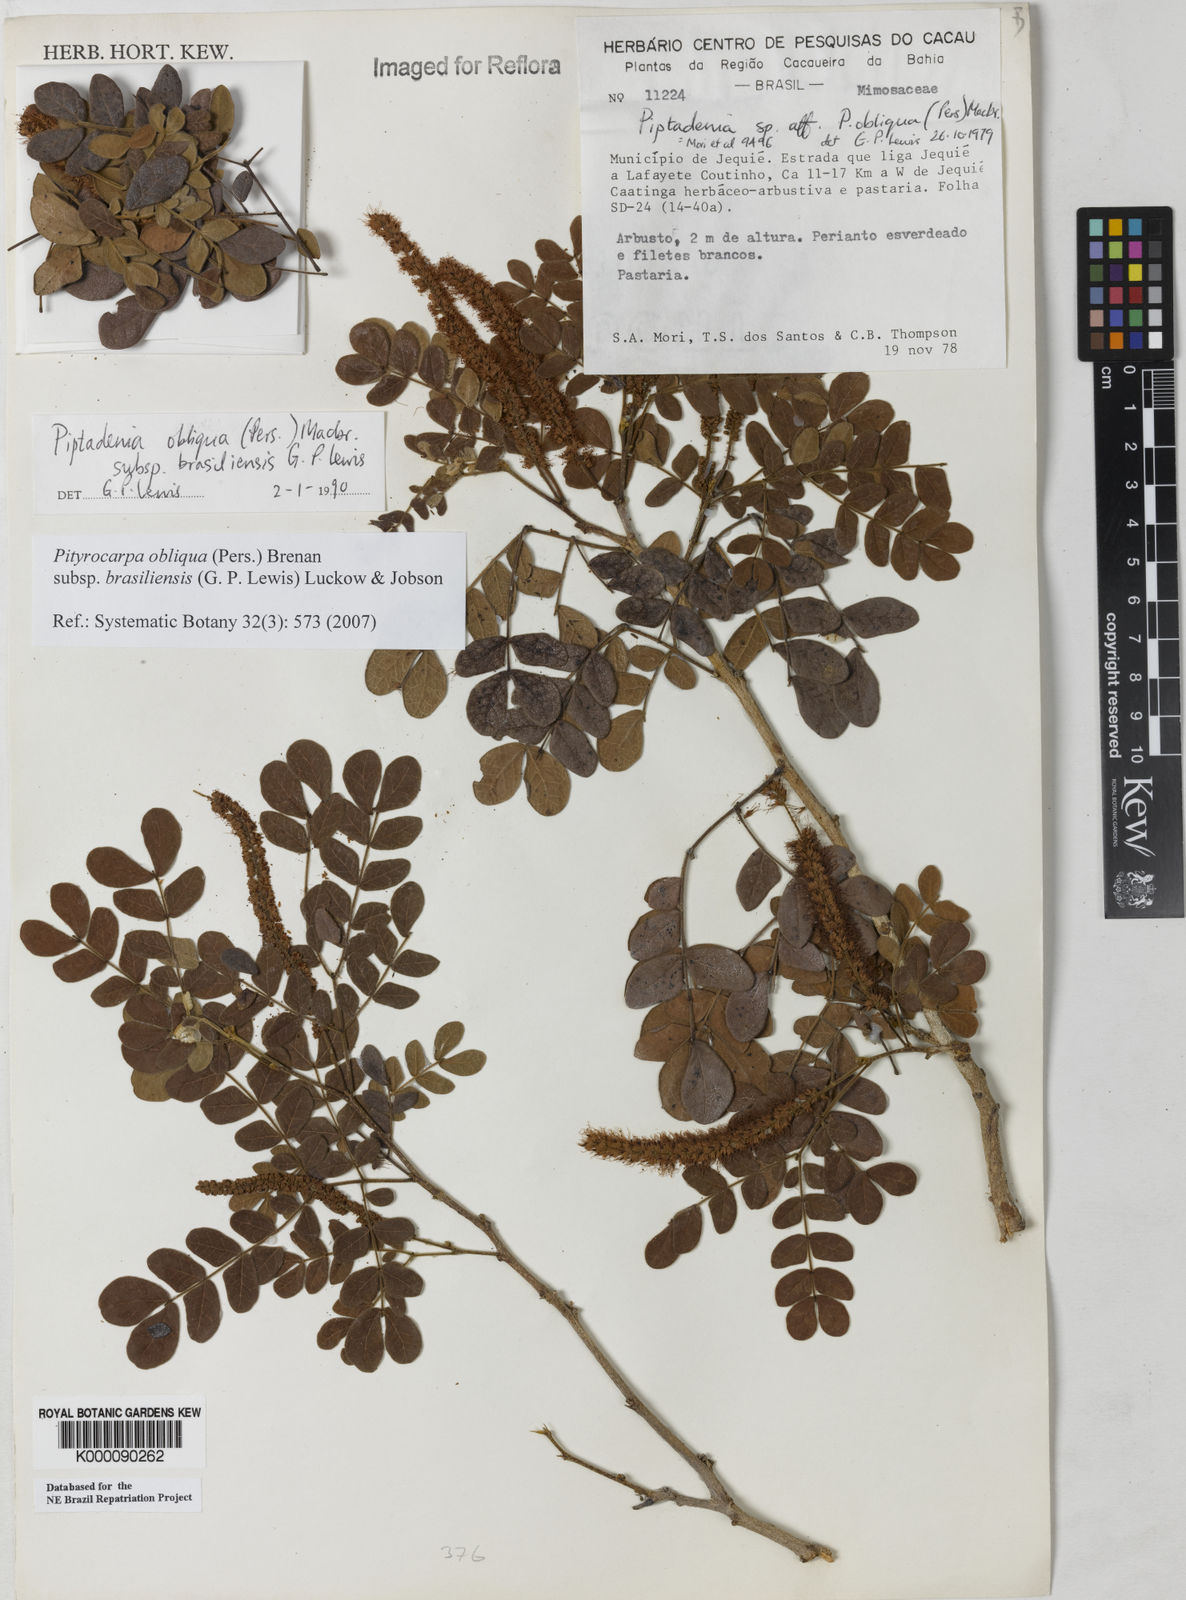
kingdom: Plantae
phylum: Tracheophyta
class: Magnoliopsida
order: Fabales
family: Fabaceae
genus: Pityrocarpa
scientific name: Pityrocarpa obliqua
